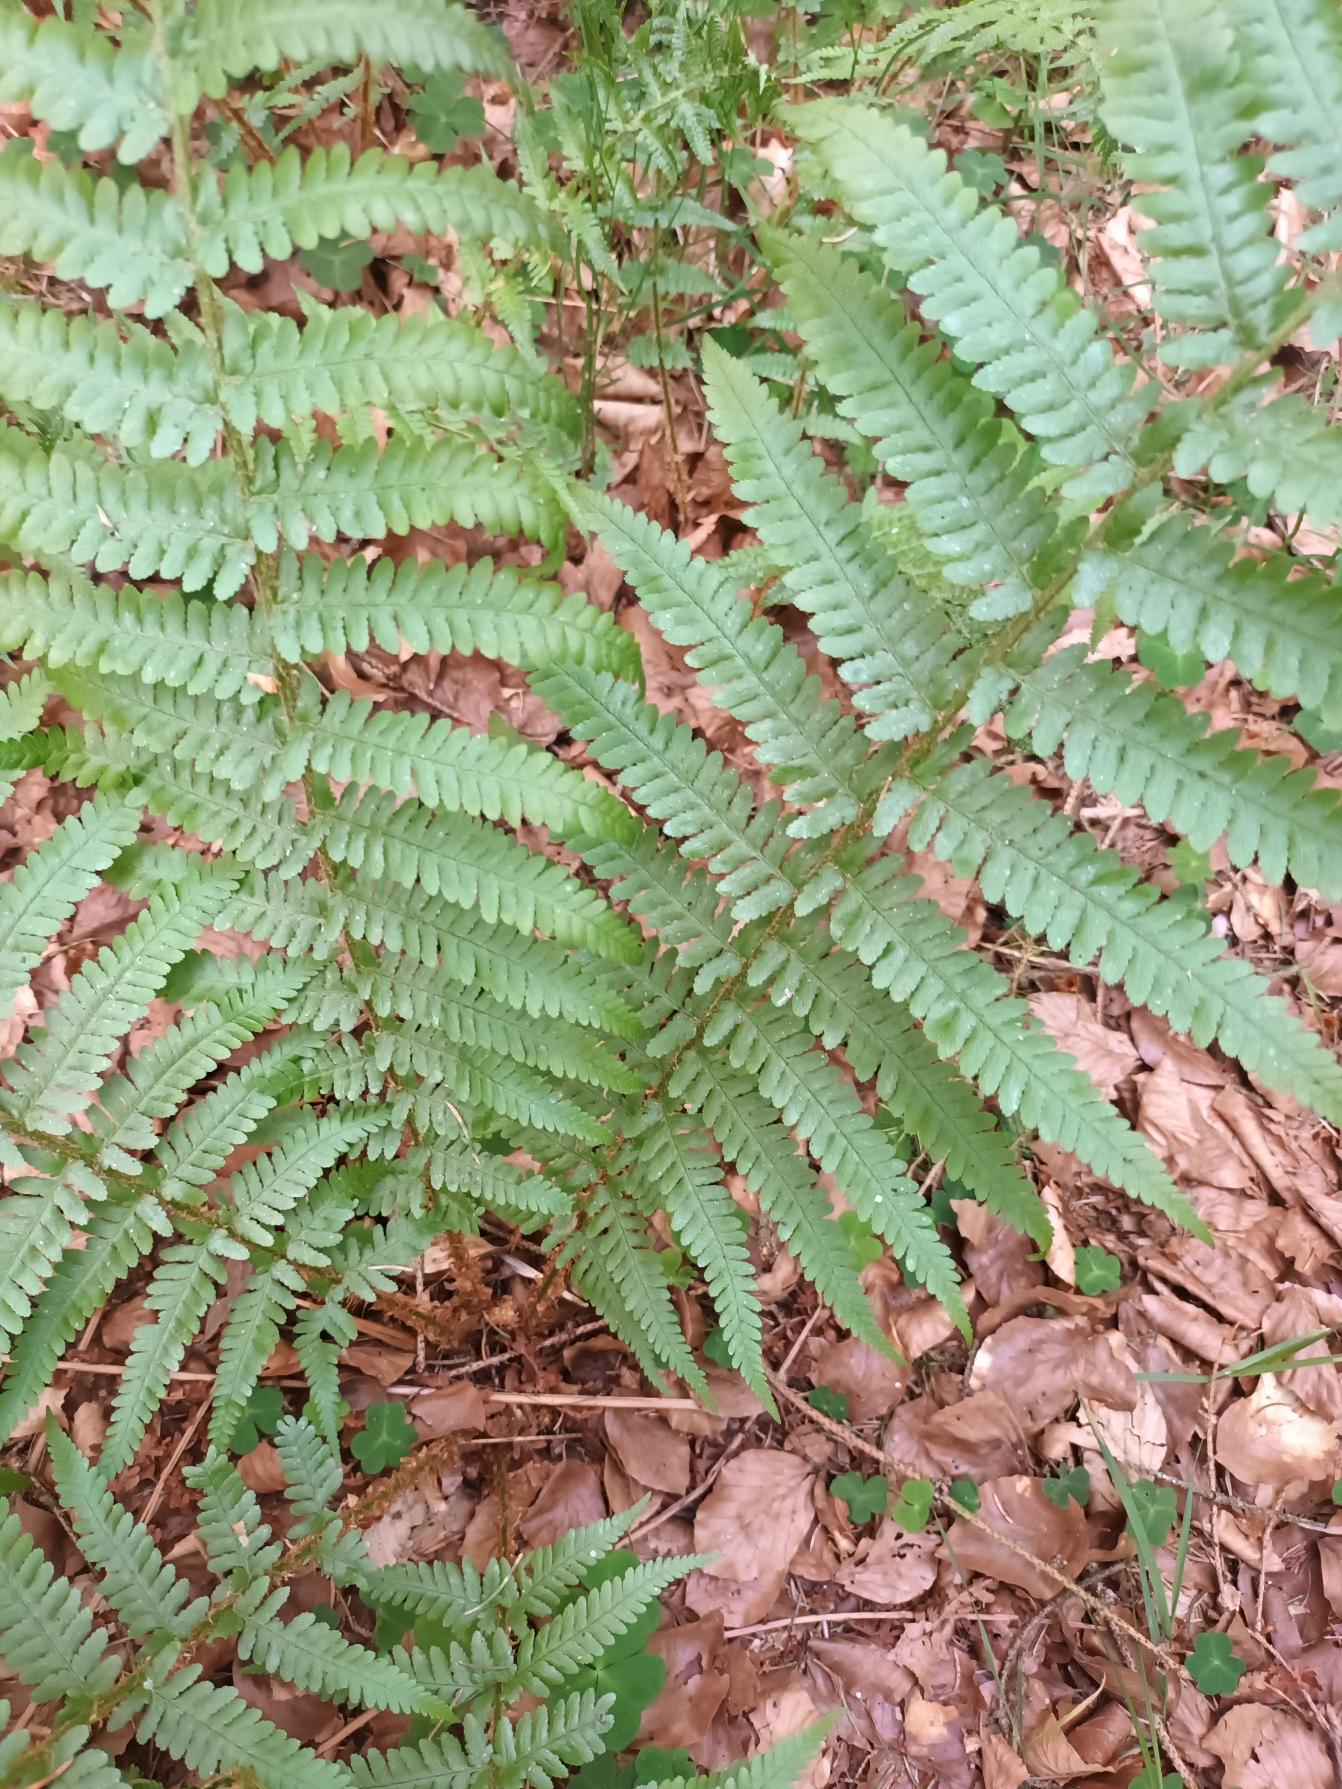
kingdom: Plantae
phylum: Tracheophyta
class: Polypodiopsida
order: Polypodiales
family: Dryopteridaceae
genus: Dryopteris
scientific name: Dryopteris filix-mas
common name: Almindelig mangeløv
